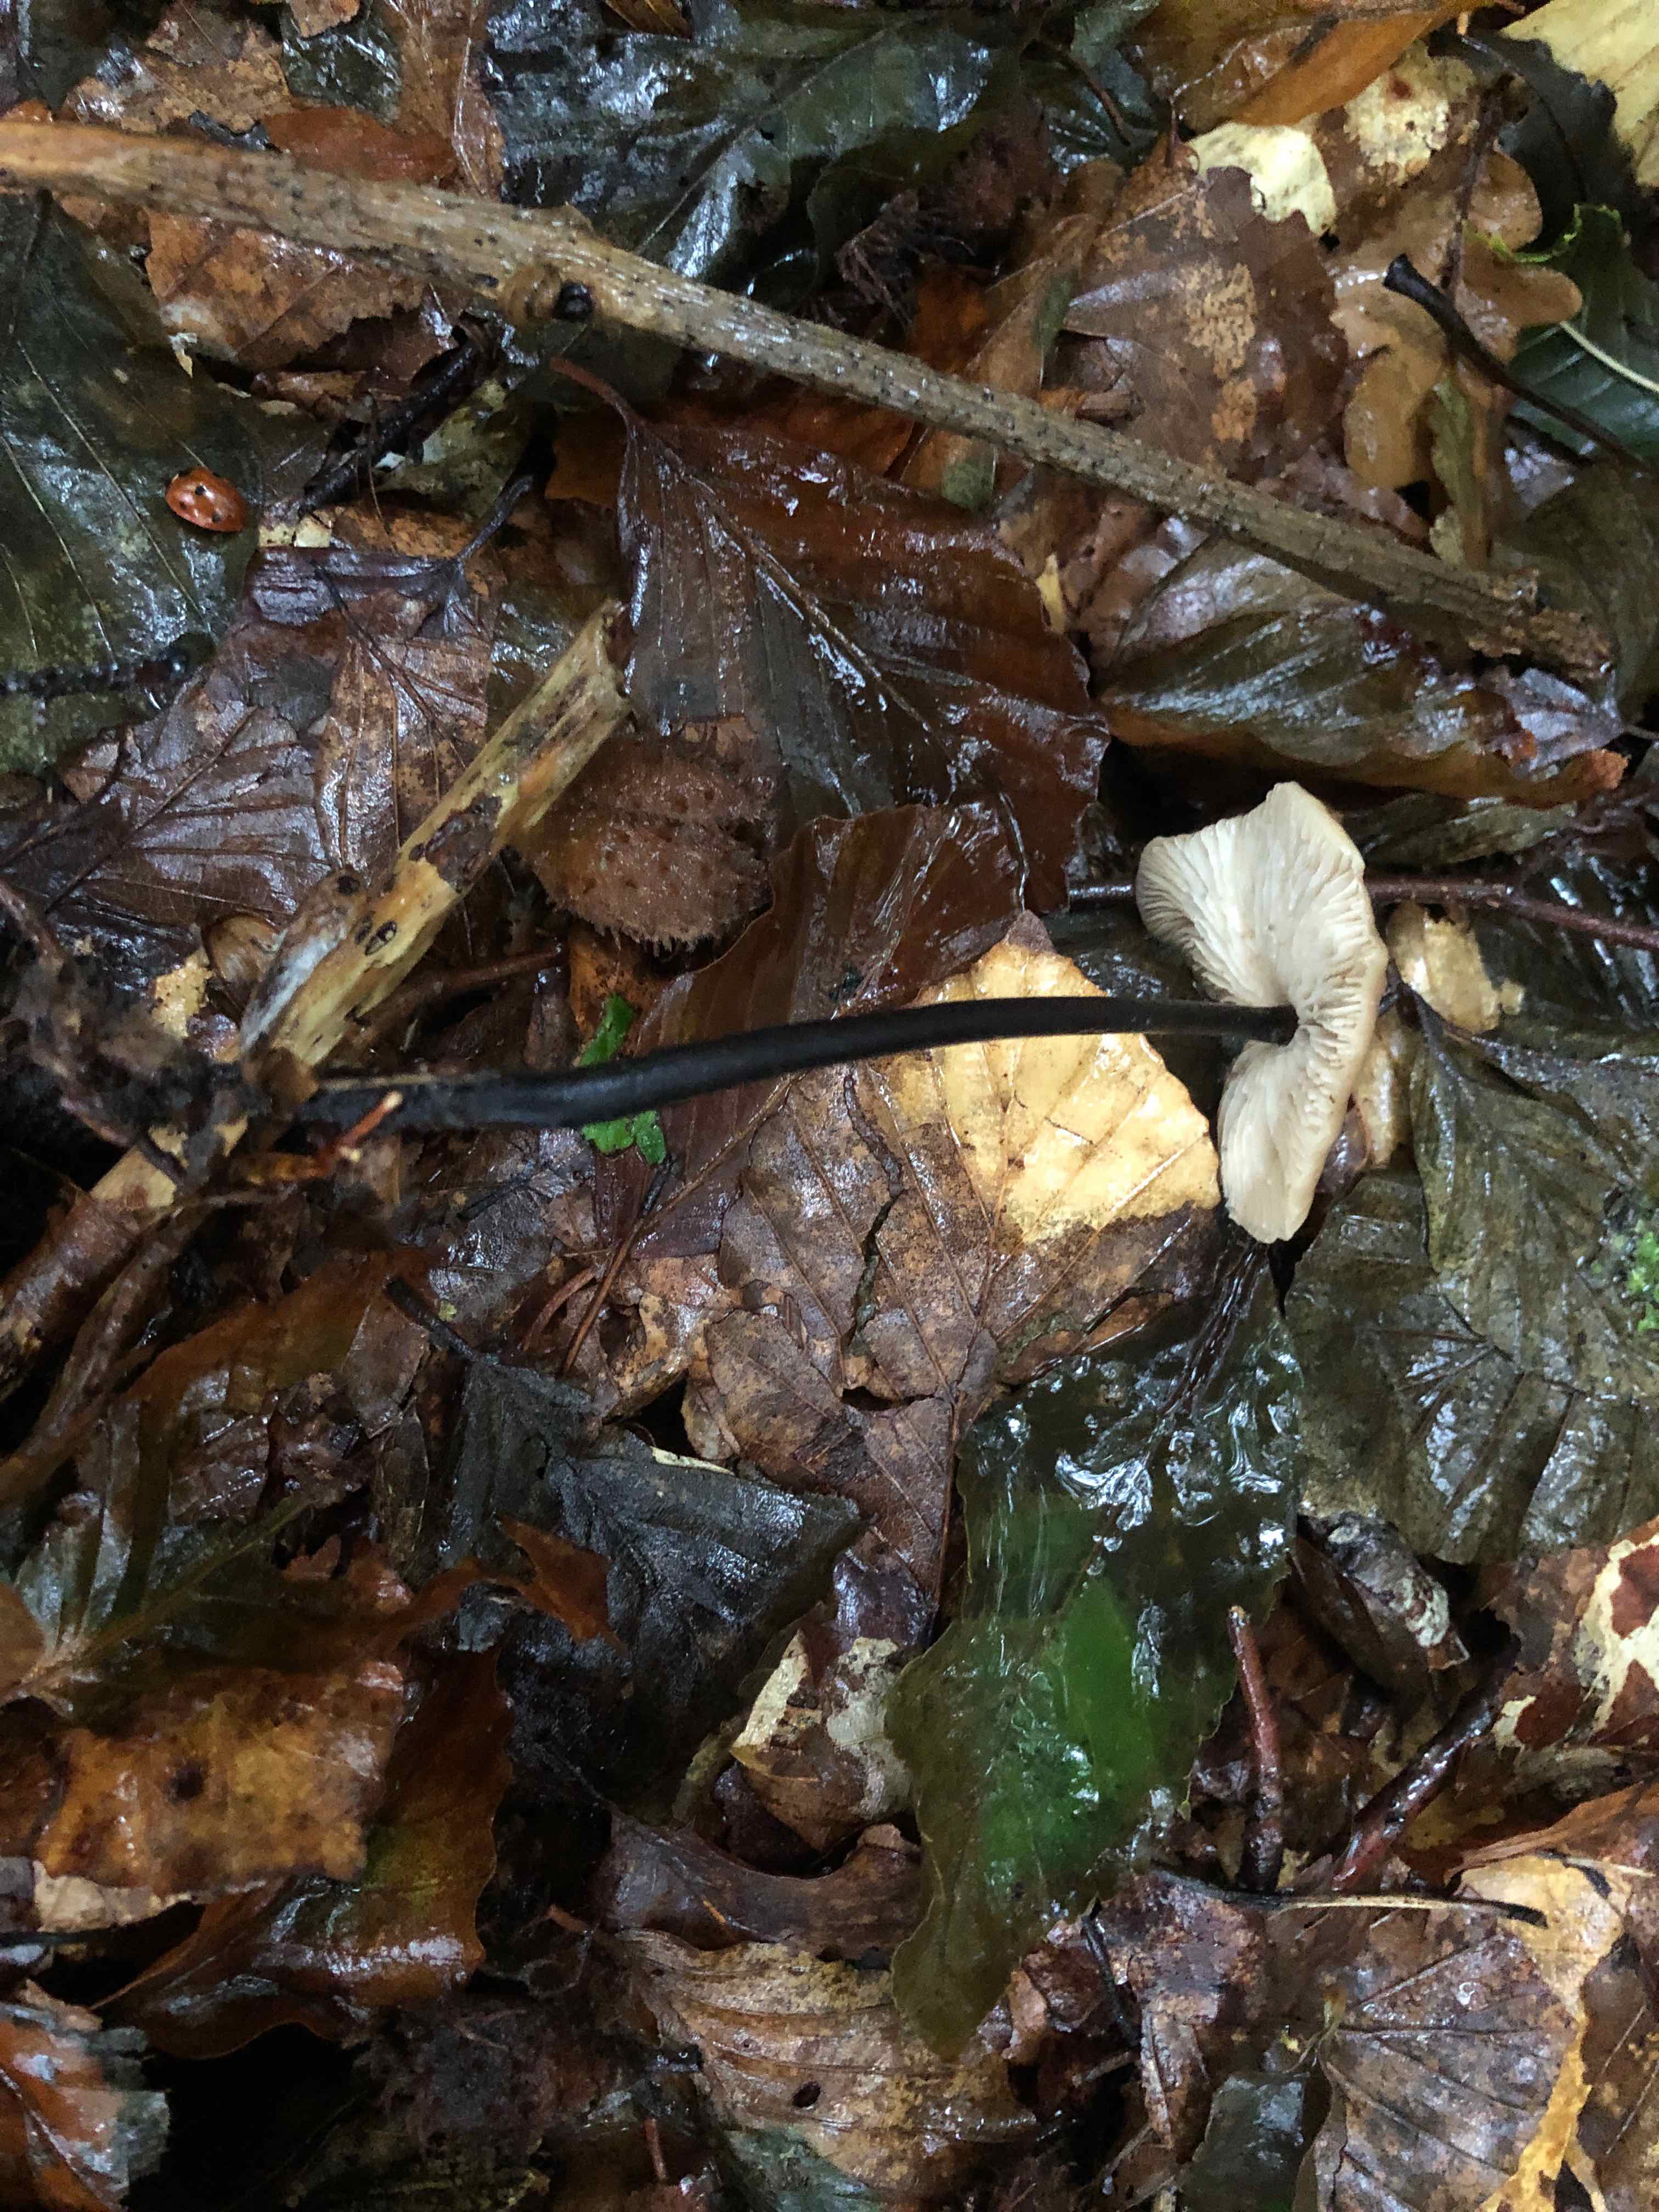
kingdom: Fungi
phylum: Basidiomycota
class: Agaricomycetes
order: Agaricales
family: Omphalotaceae
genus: Mycetinis
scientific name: Mycetinis alliaceus
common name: stor løghat
